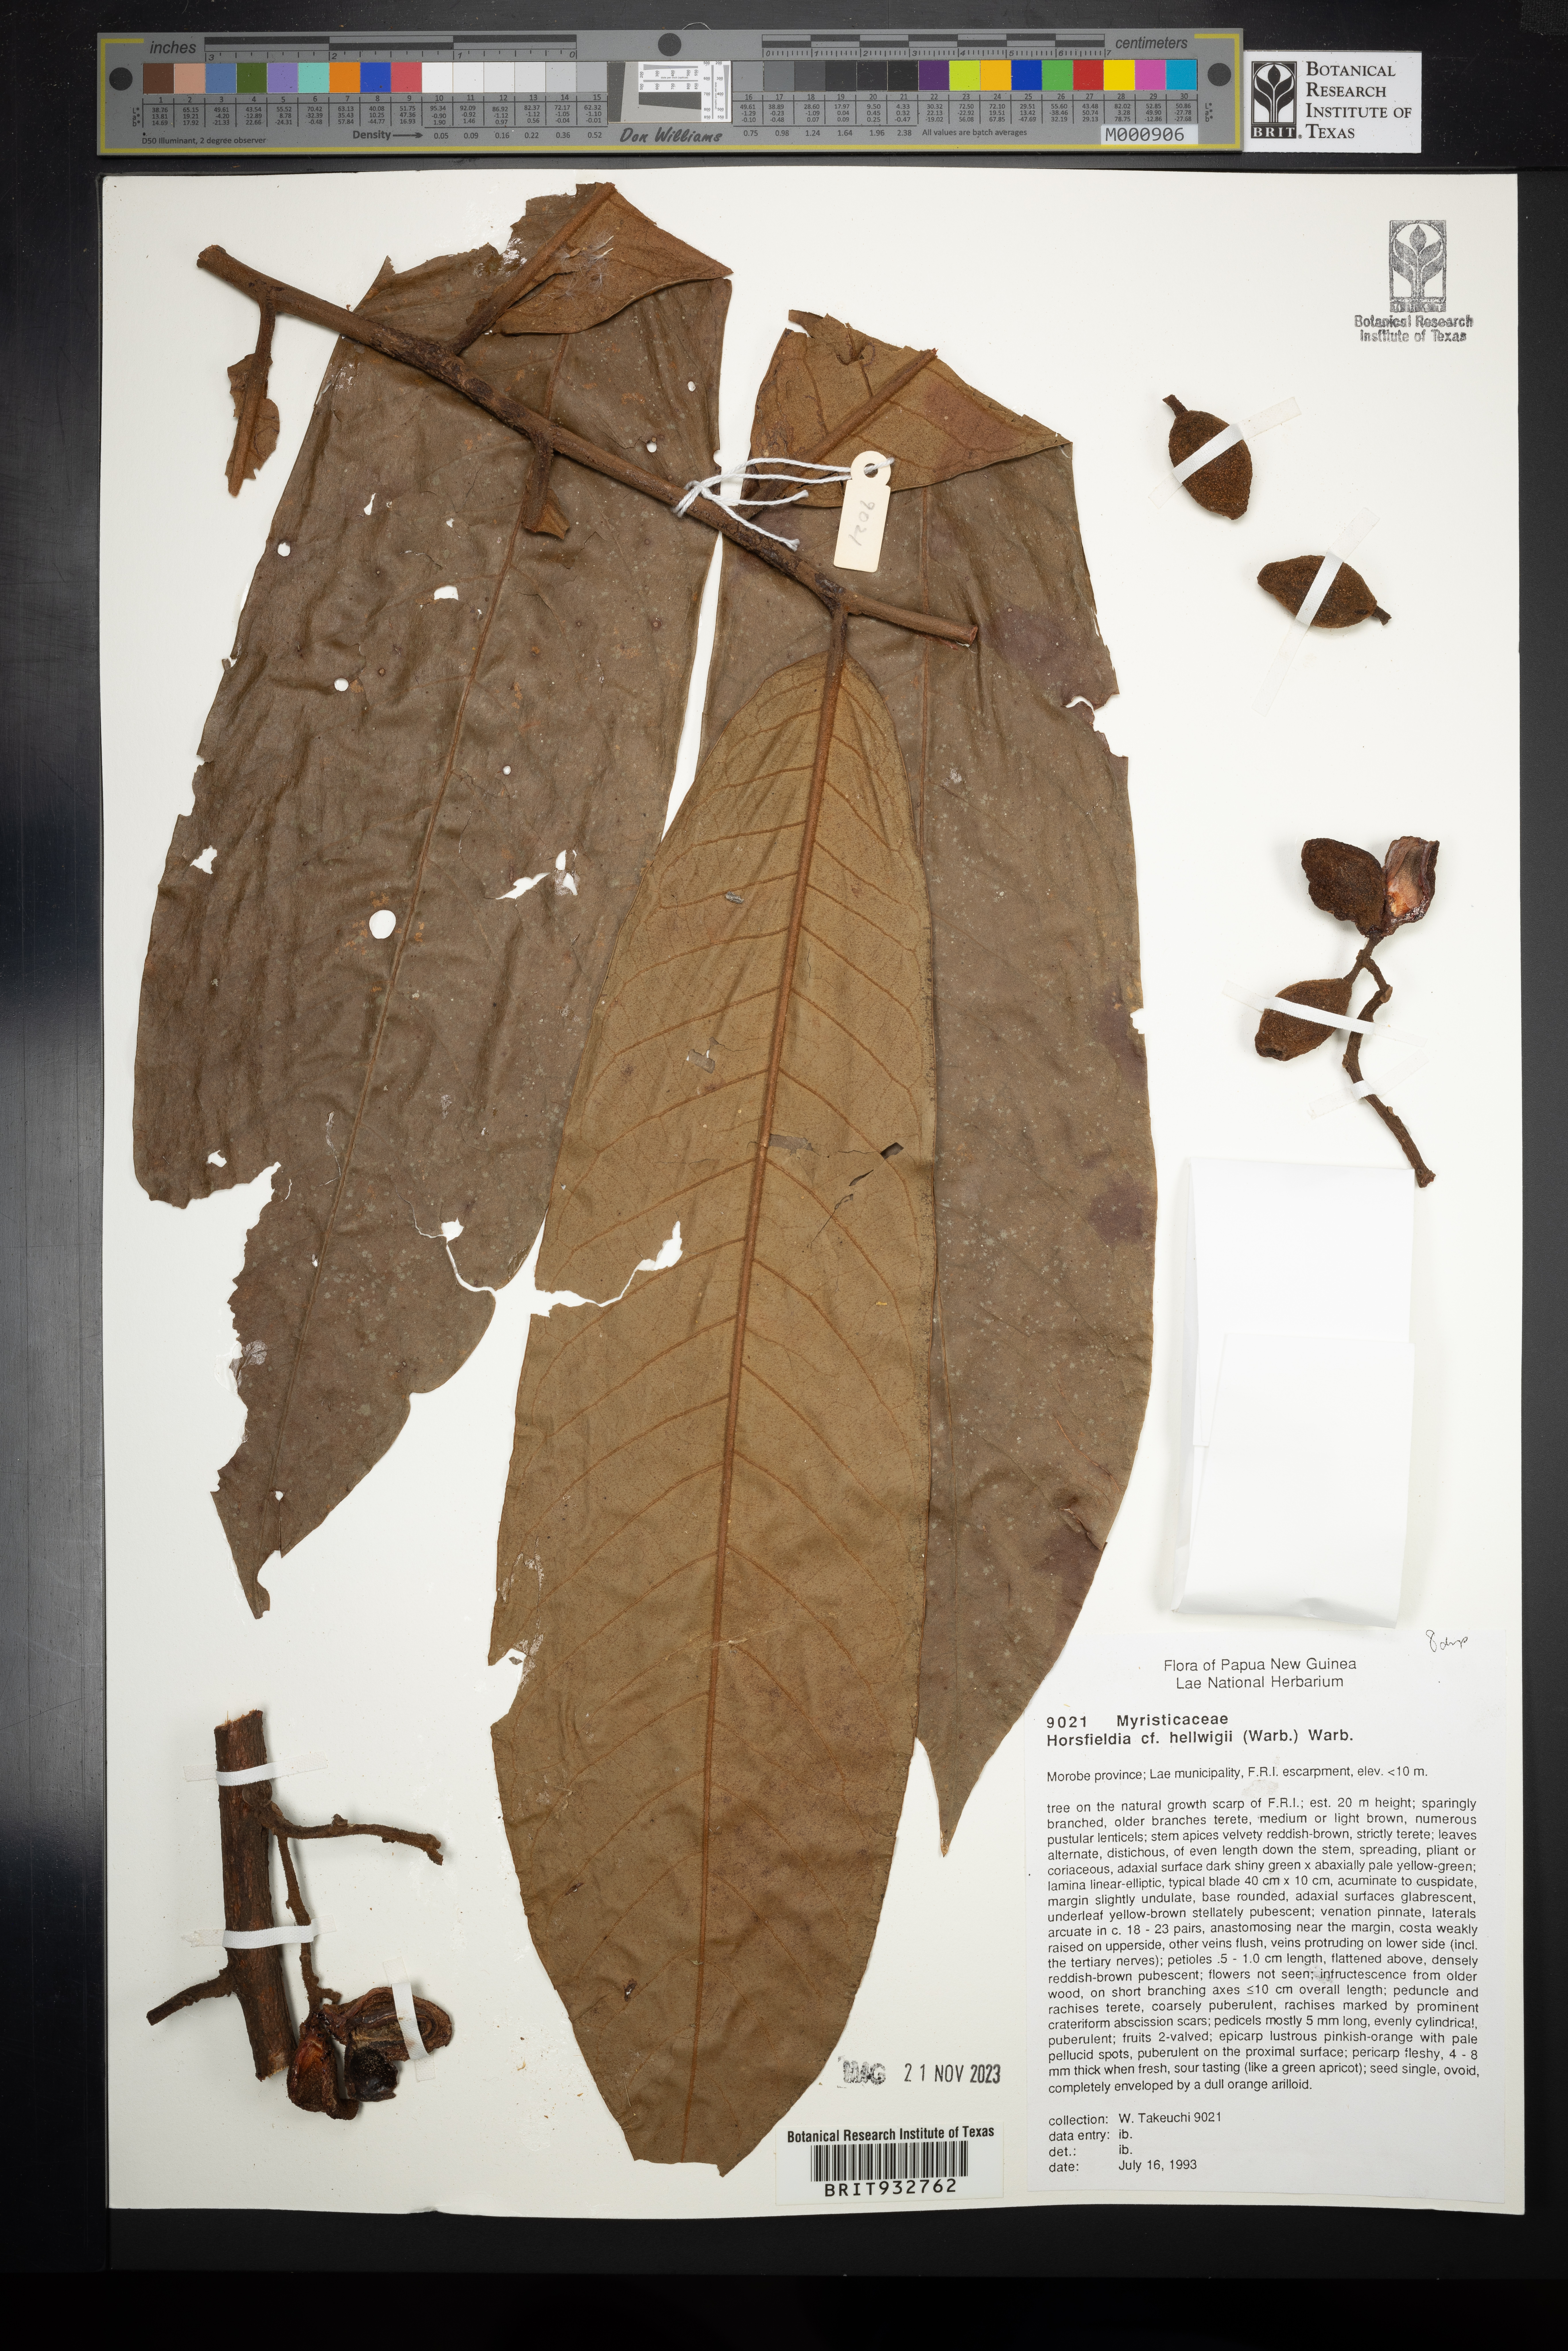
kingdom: Plantae
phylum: Tracheophyta
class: Magnoliopsida
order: Magnoliales
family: Myristicaceae
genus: Horsfieldia
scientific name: Horsfieldia
